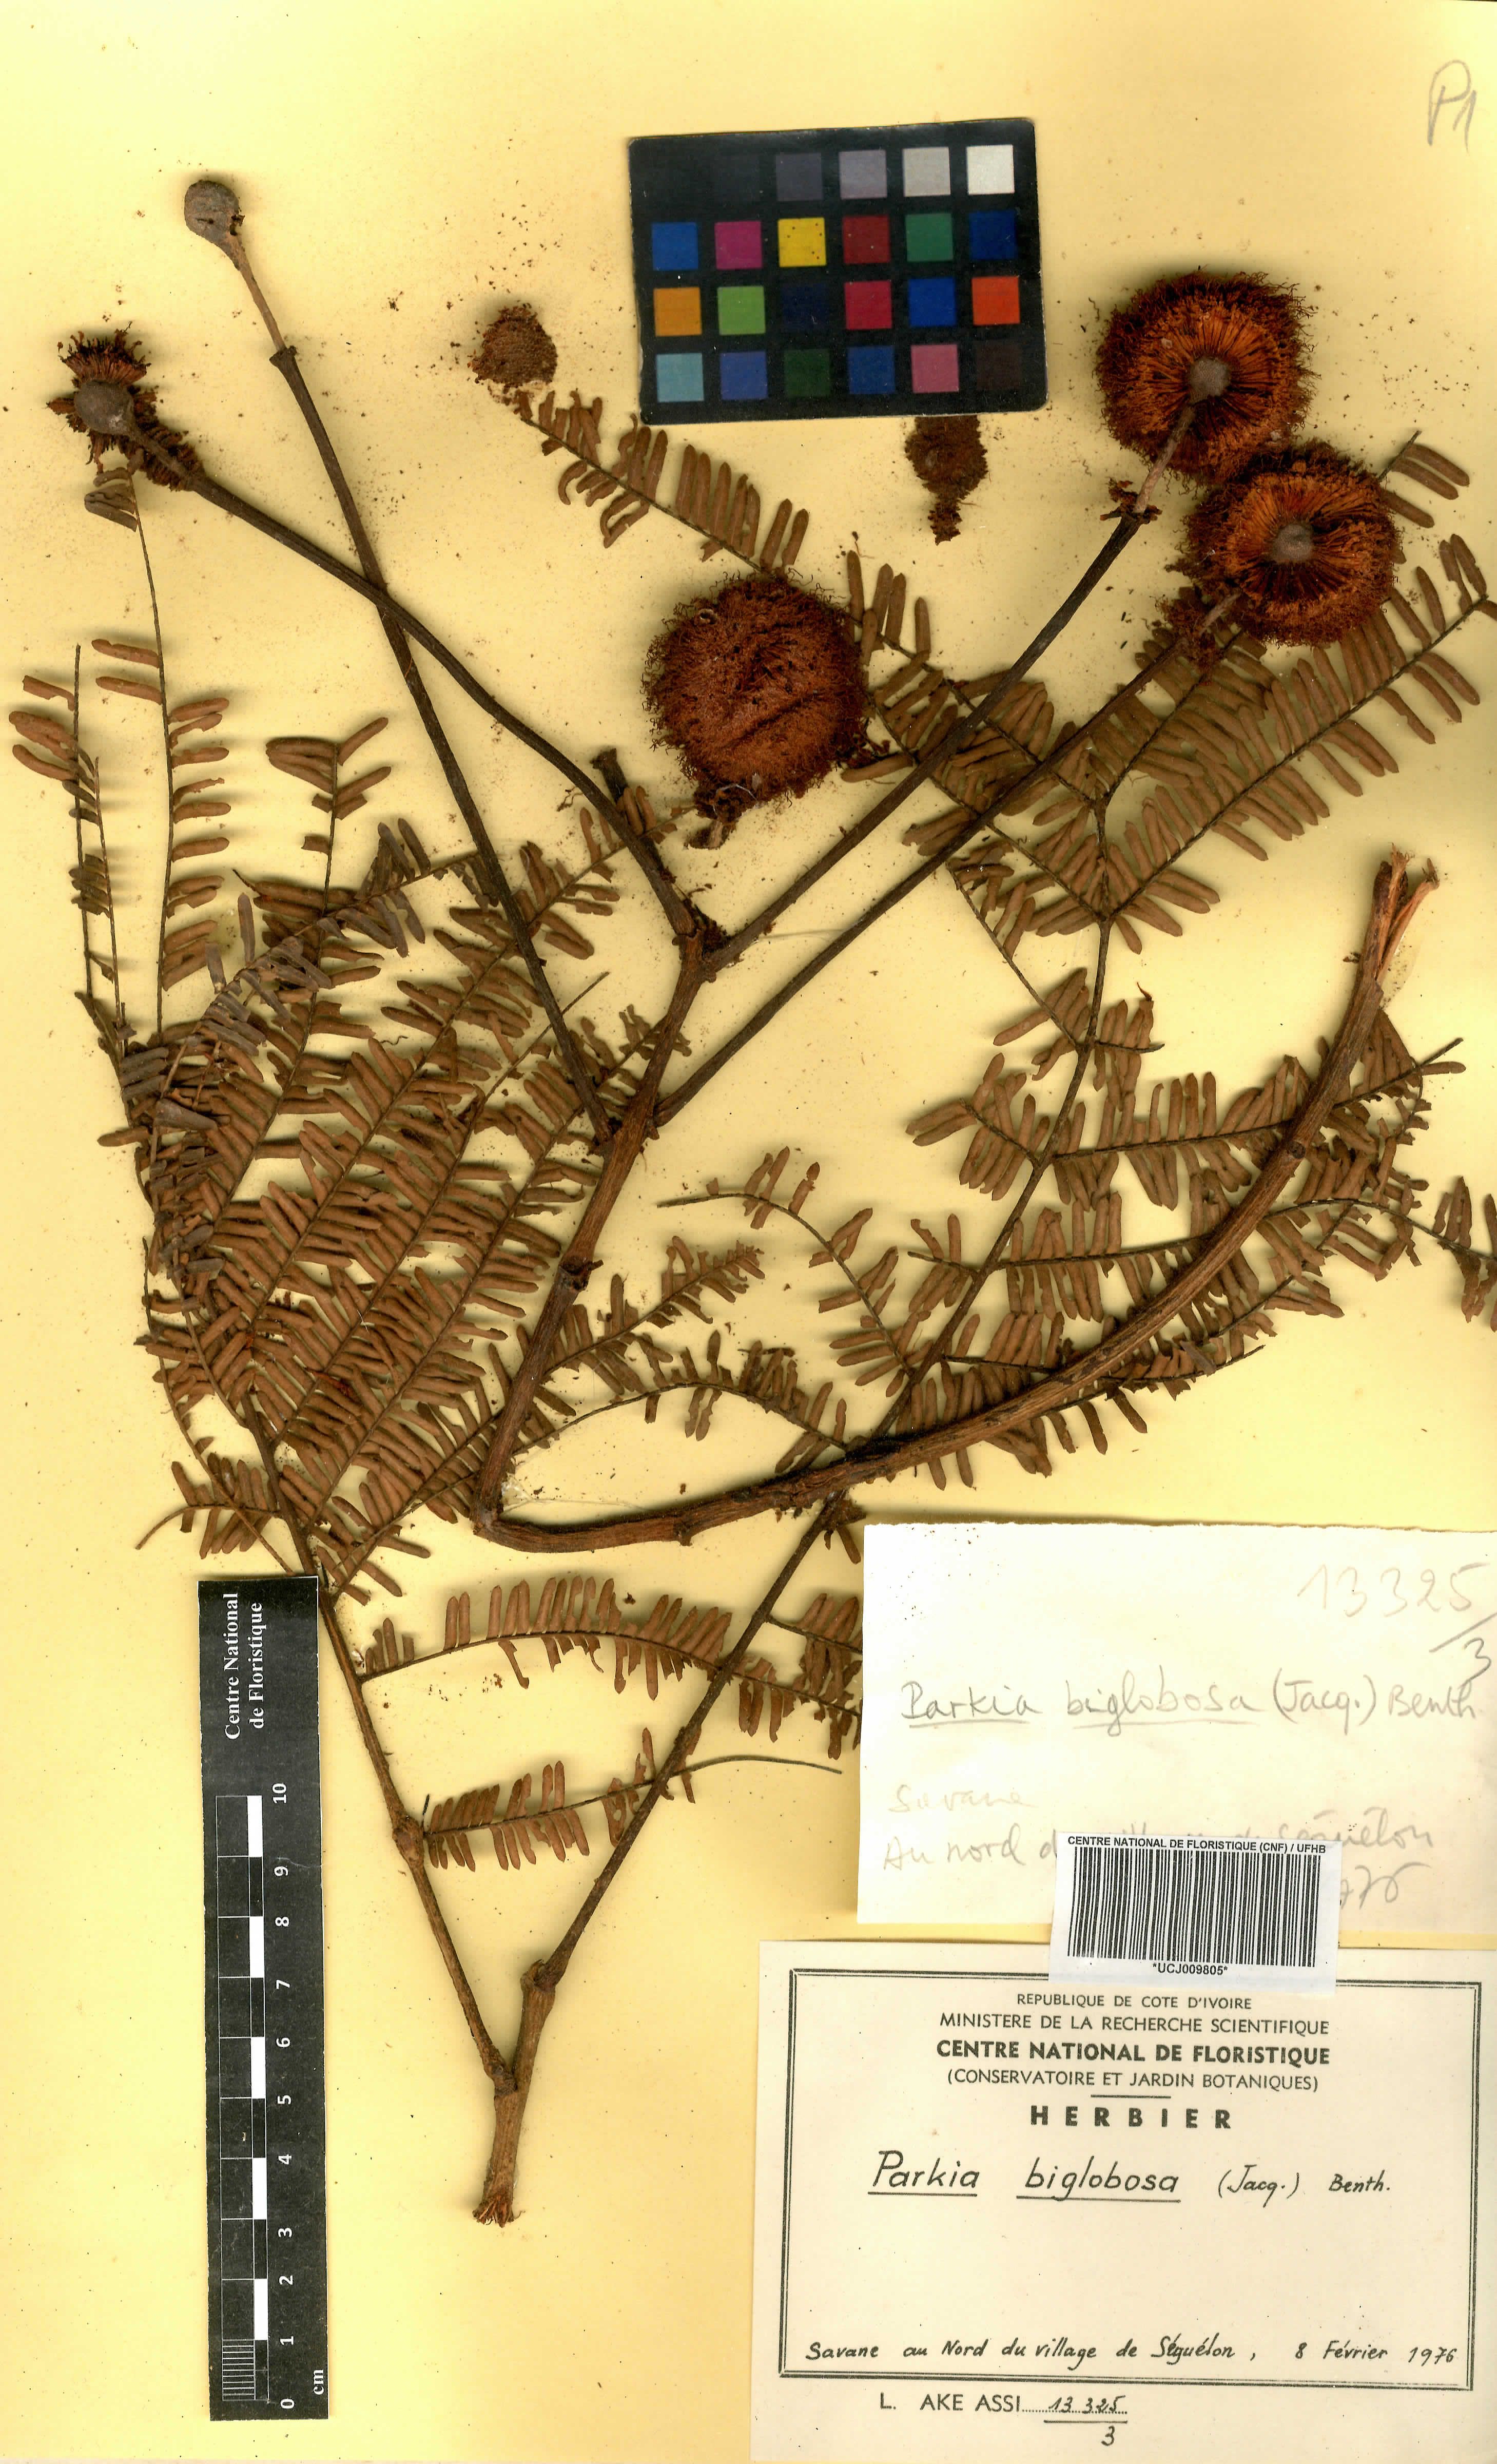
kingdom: Plantae
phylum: Tracheophyta
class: Magnoliopsida
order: Fabales
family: Fabaceae
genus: Parkia
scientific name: Parkia timoriana
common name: Legume
